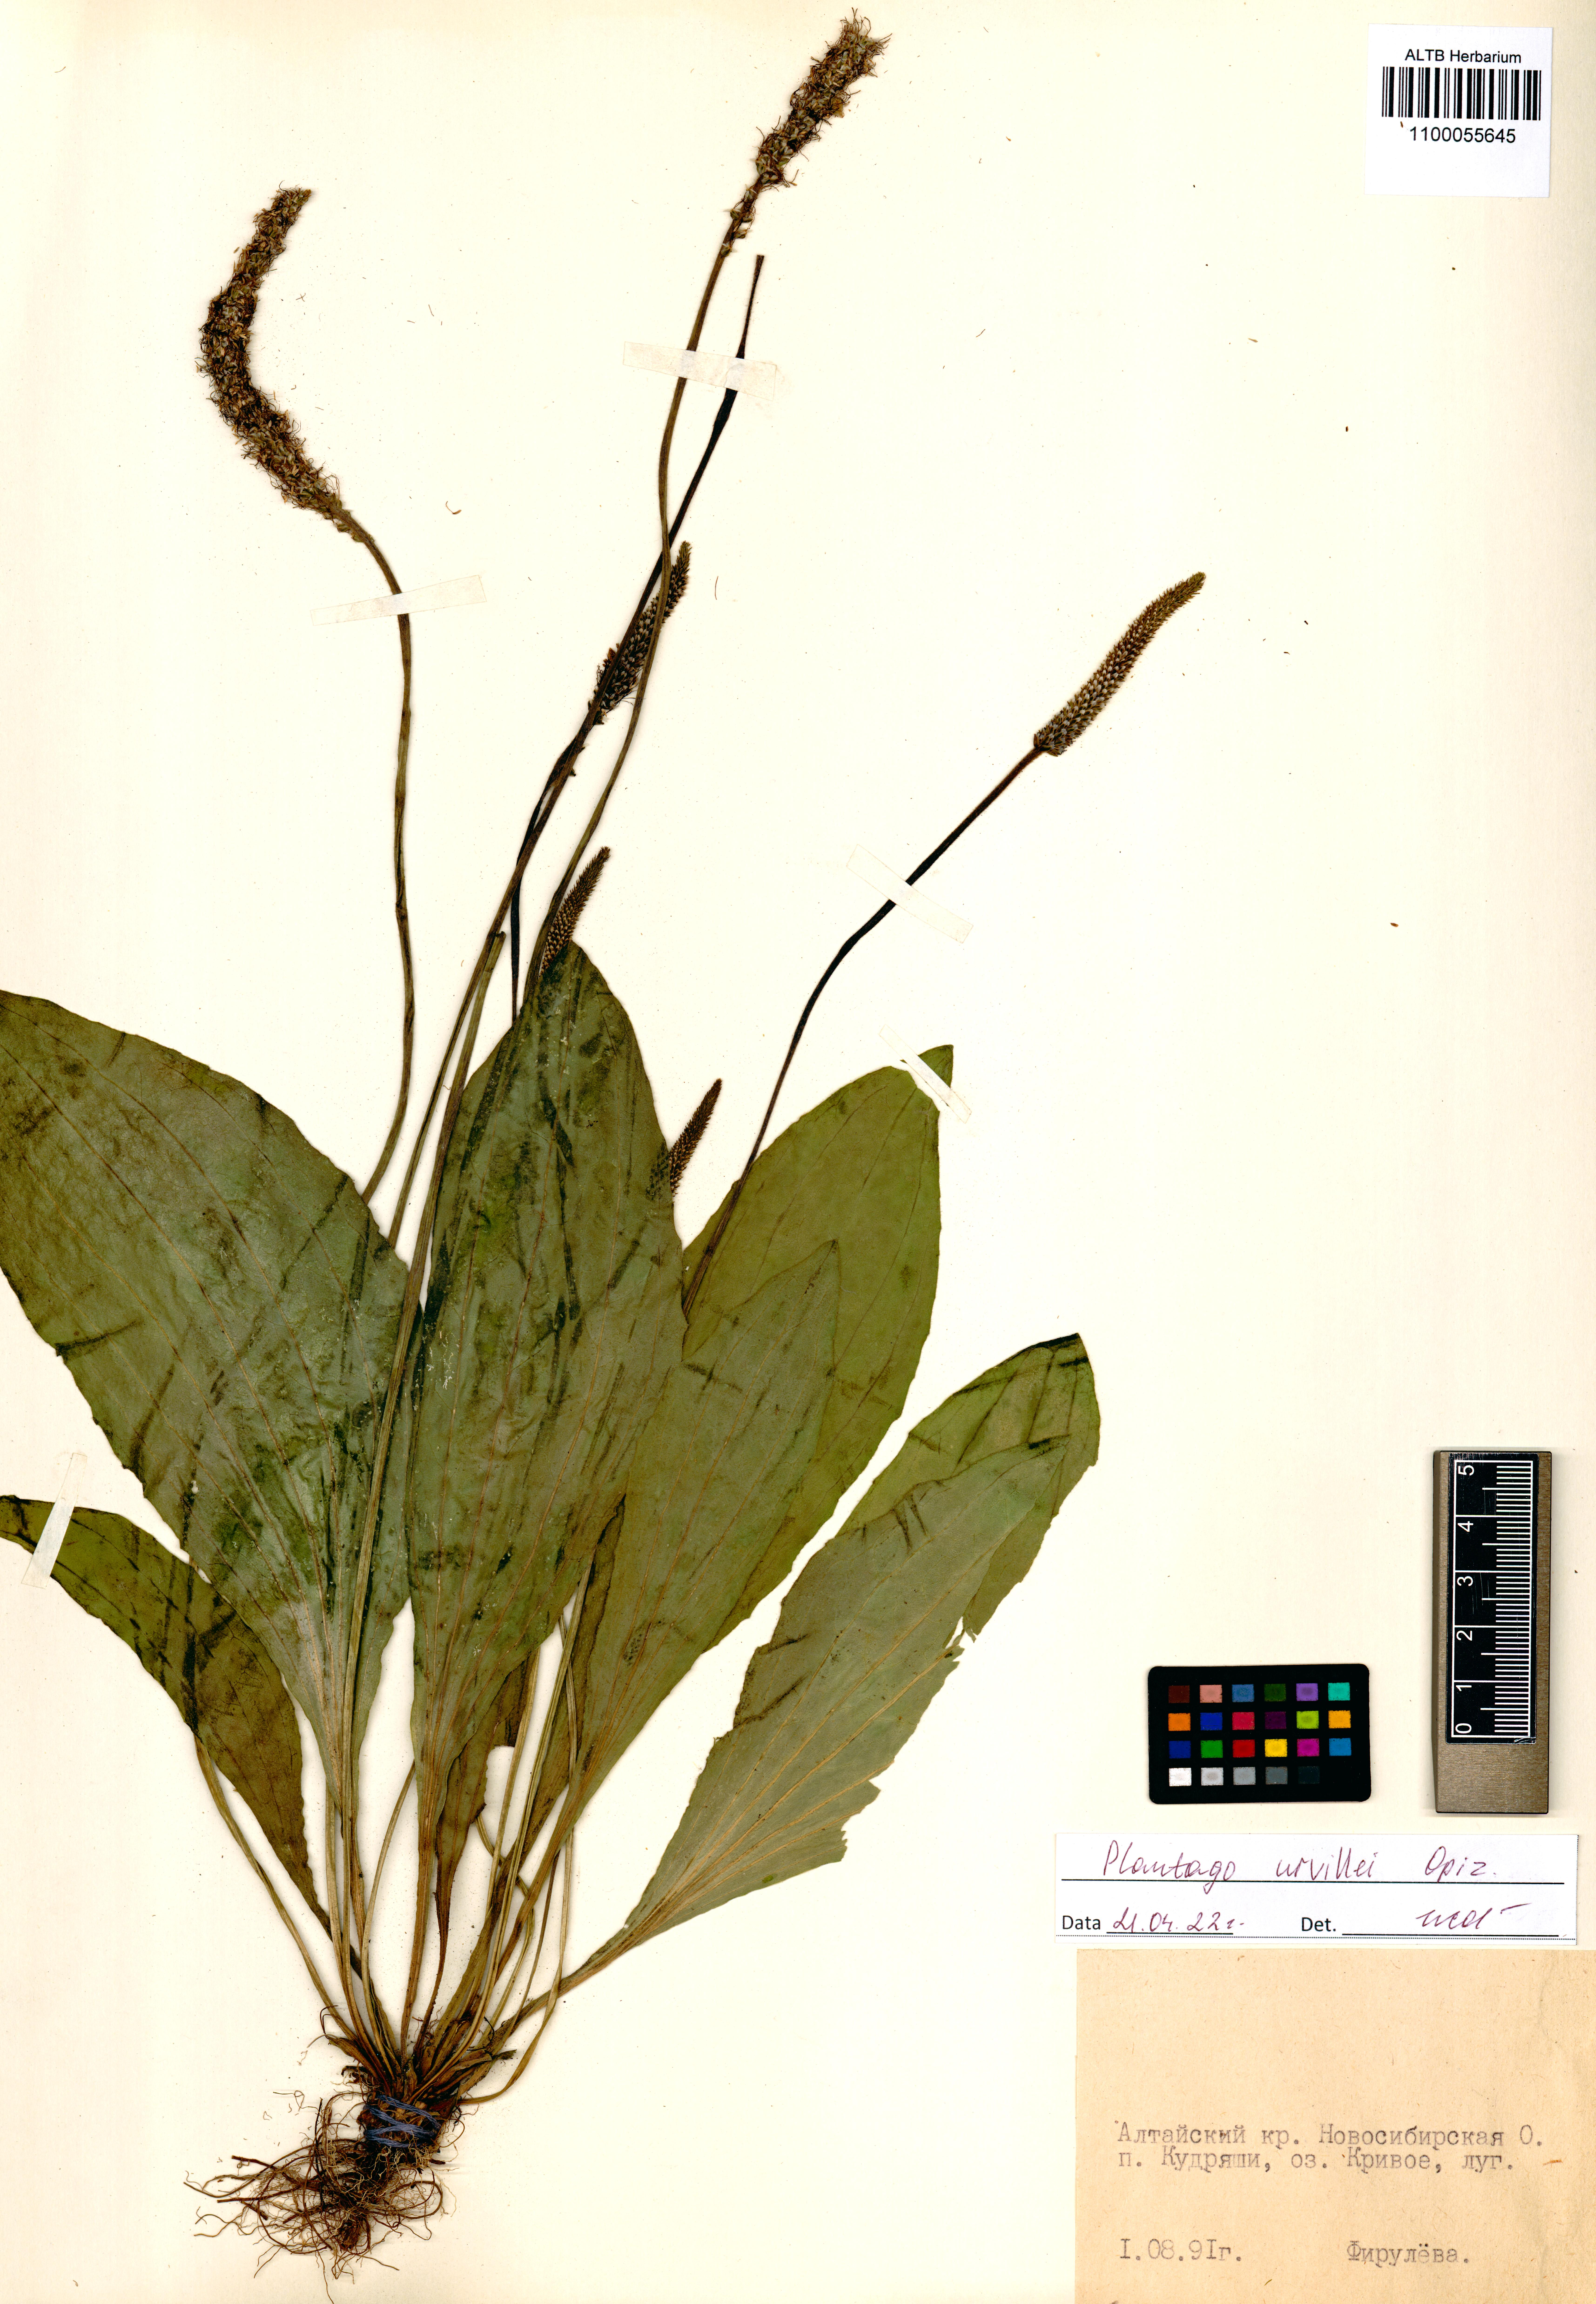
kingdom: Plantae
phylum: Tracheophyta
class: Magnoliopsida
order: Lamiales
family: Plantaginaceae
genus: Plantago
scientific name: Plantago urvillei
